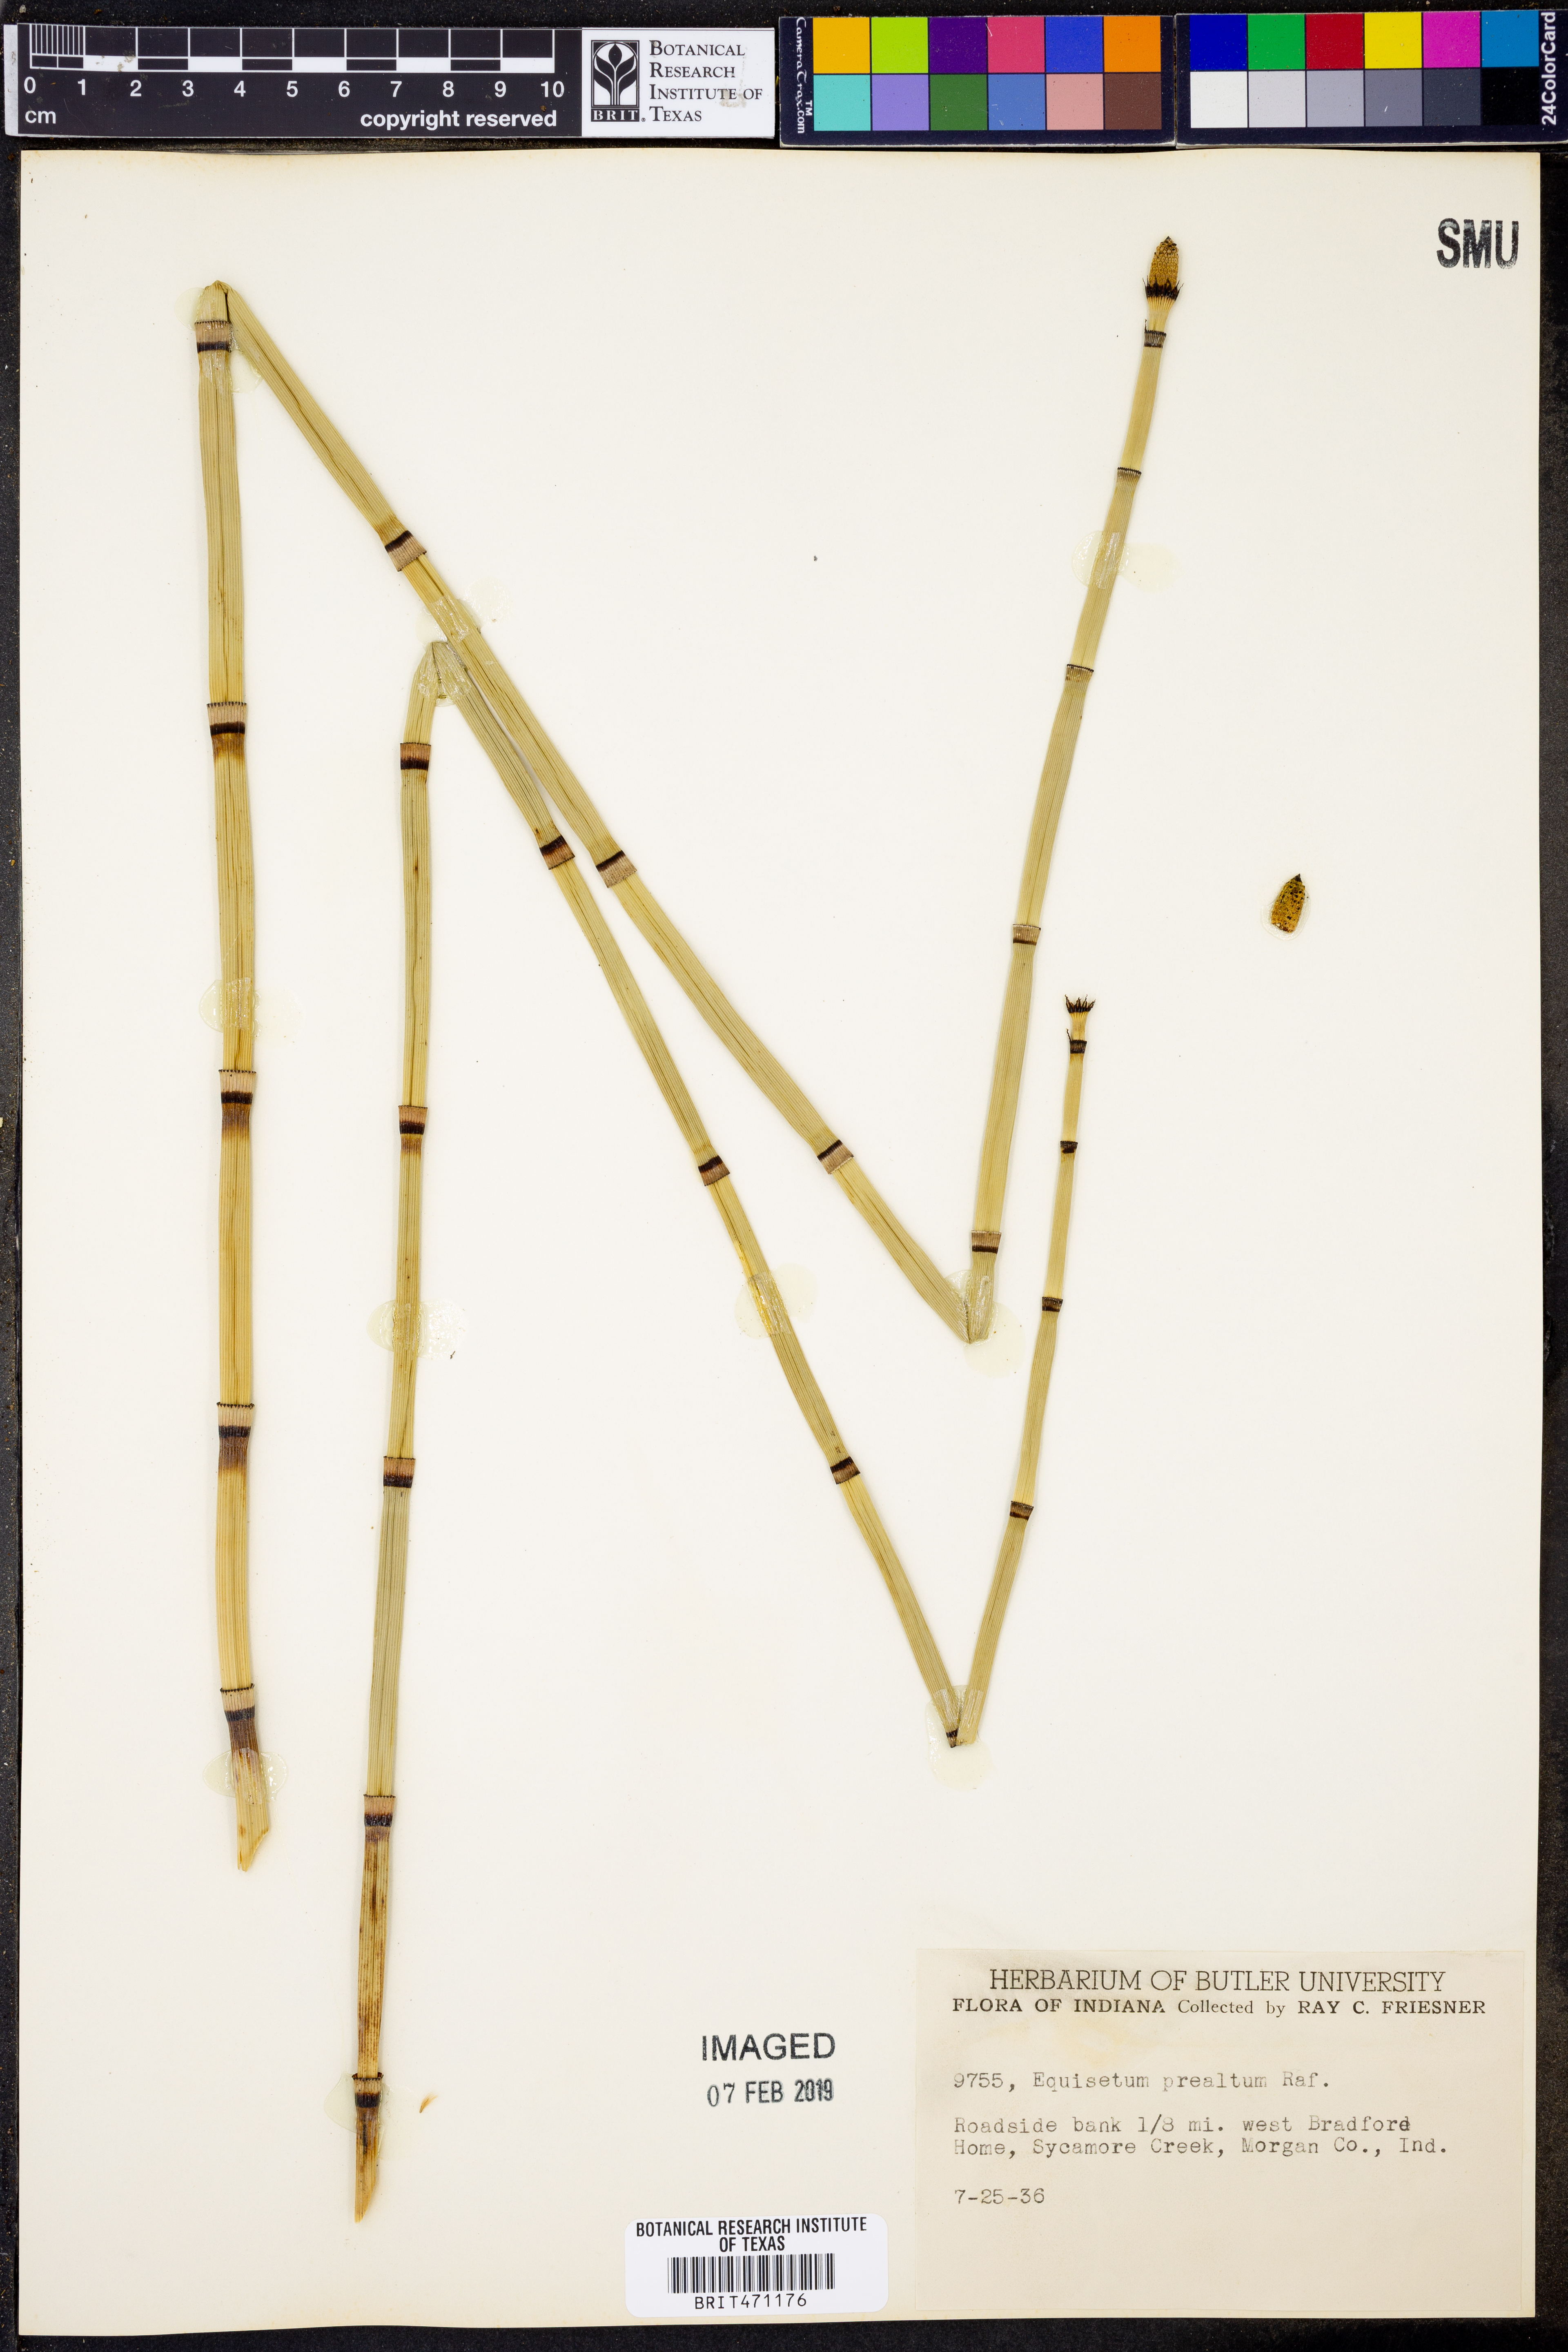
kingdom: Plantae
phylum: Tracheophyta
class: Polypodiopsida
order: Equisetales
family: Equisetaceae
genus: Equisetum
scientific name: Equisetum praealtum
